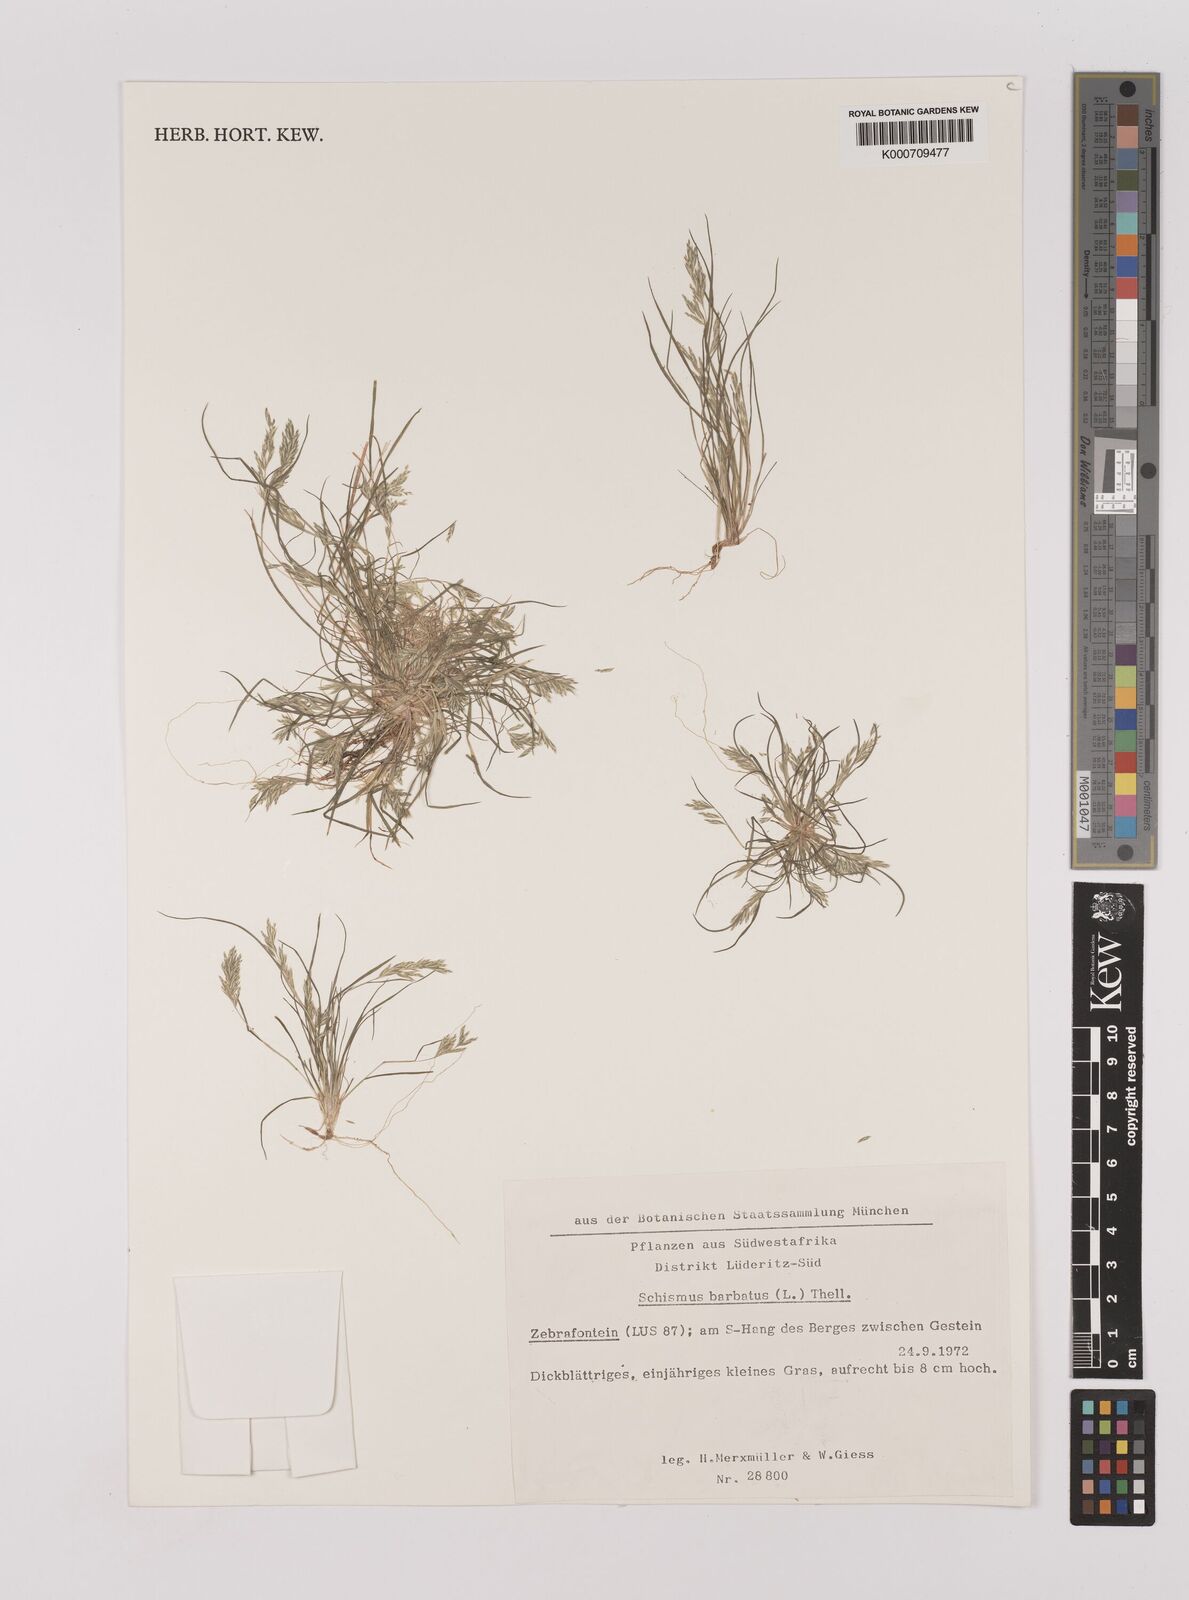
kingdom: Plantae
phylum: Tracheophyta
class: Liliopsida
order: Poales
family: Poaceae
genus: Schismus
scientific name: Schismus barbatus
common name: Kelch-grass
